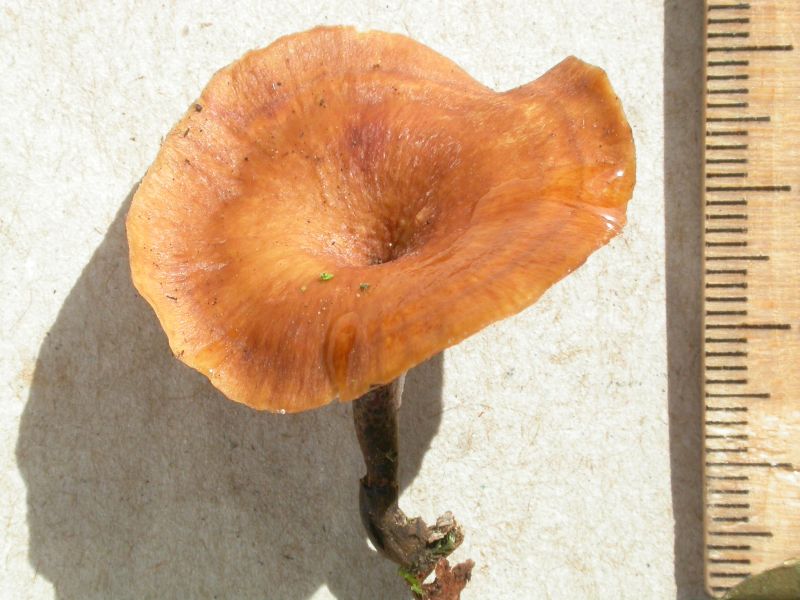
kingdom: Fungi
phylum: Basidiomycota
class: Agaricomycetes
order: Polyporales
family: Polyporaceae
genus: Picipes
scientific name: Picipes tubaeformis
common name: trompet-stilkporesvamp
